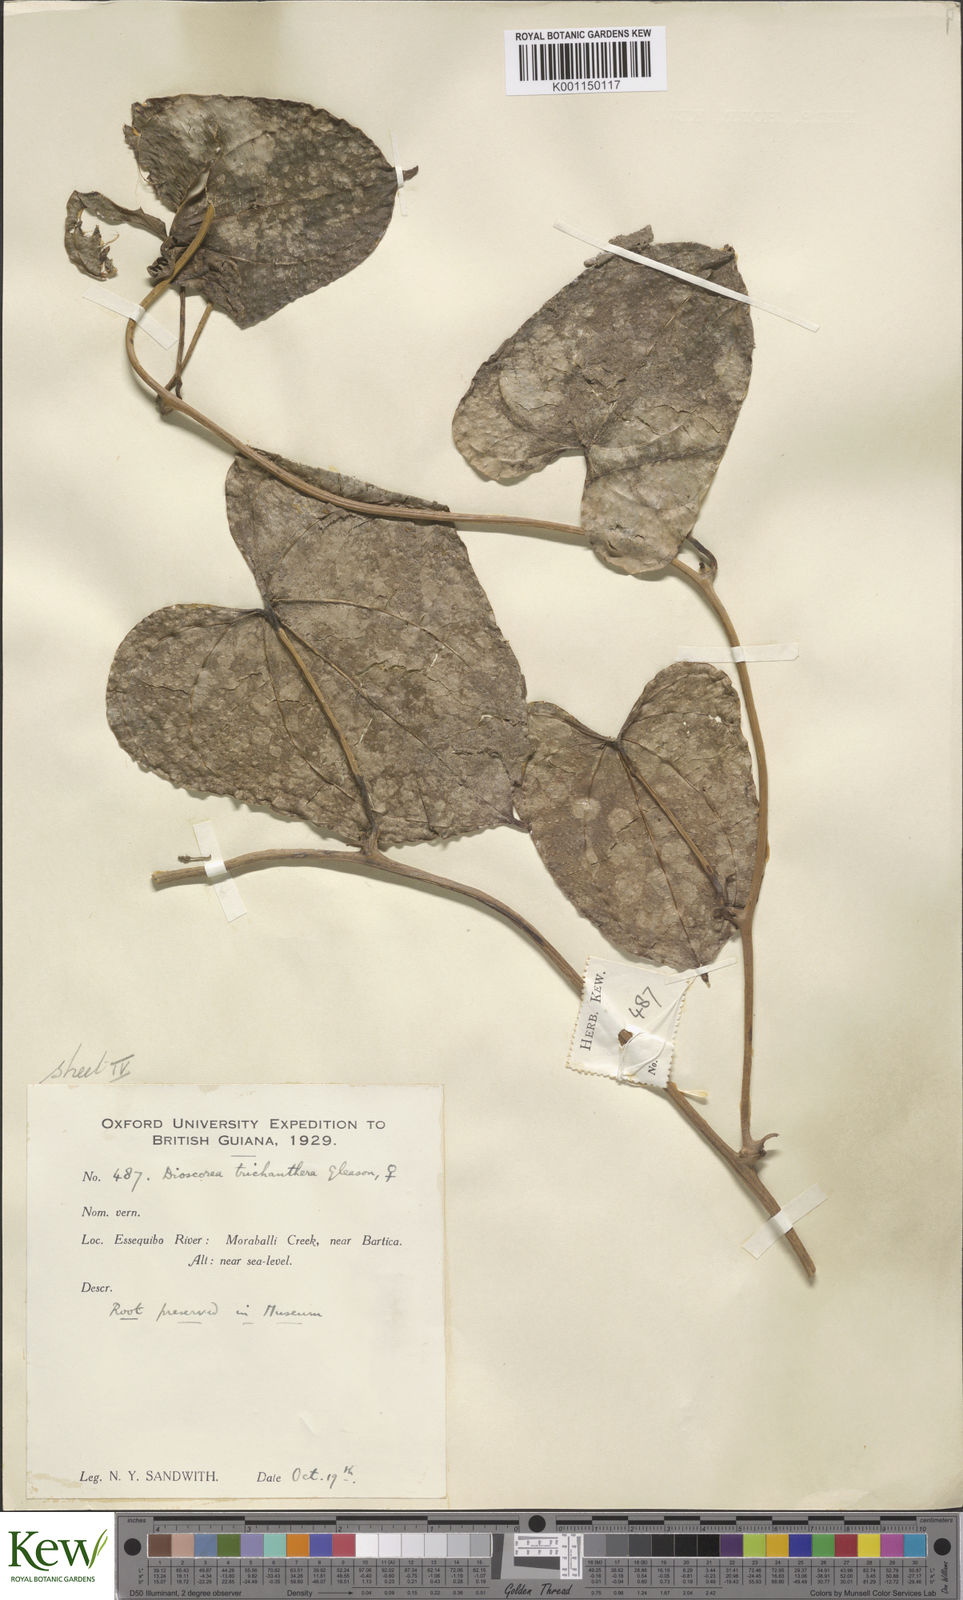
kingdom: Plantae
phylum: Tracheophyta
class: Liliopsida
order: Dioscoreales
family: Dioscoreaceae
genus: Dioscorea
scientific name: Dioscorea trichanthera
